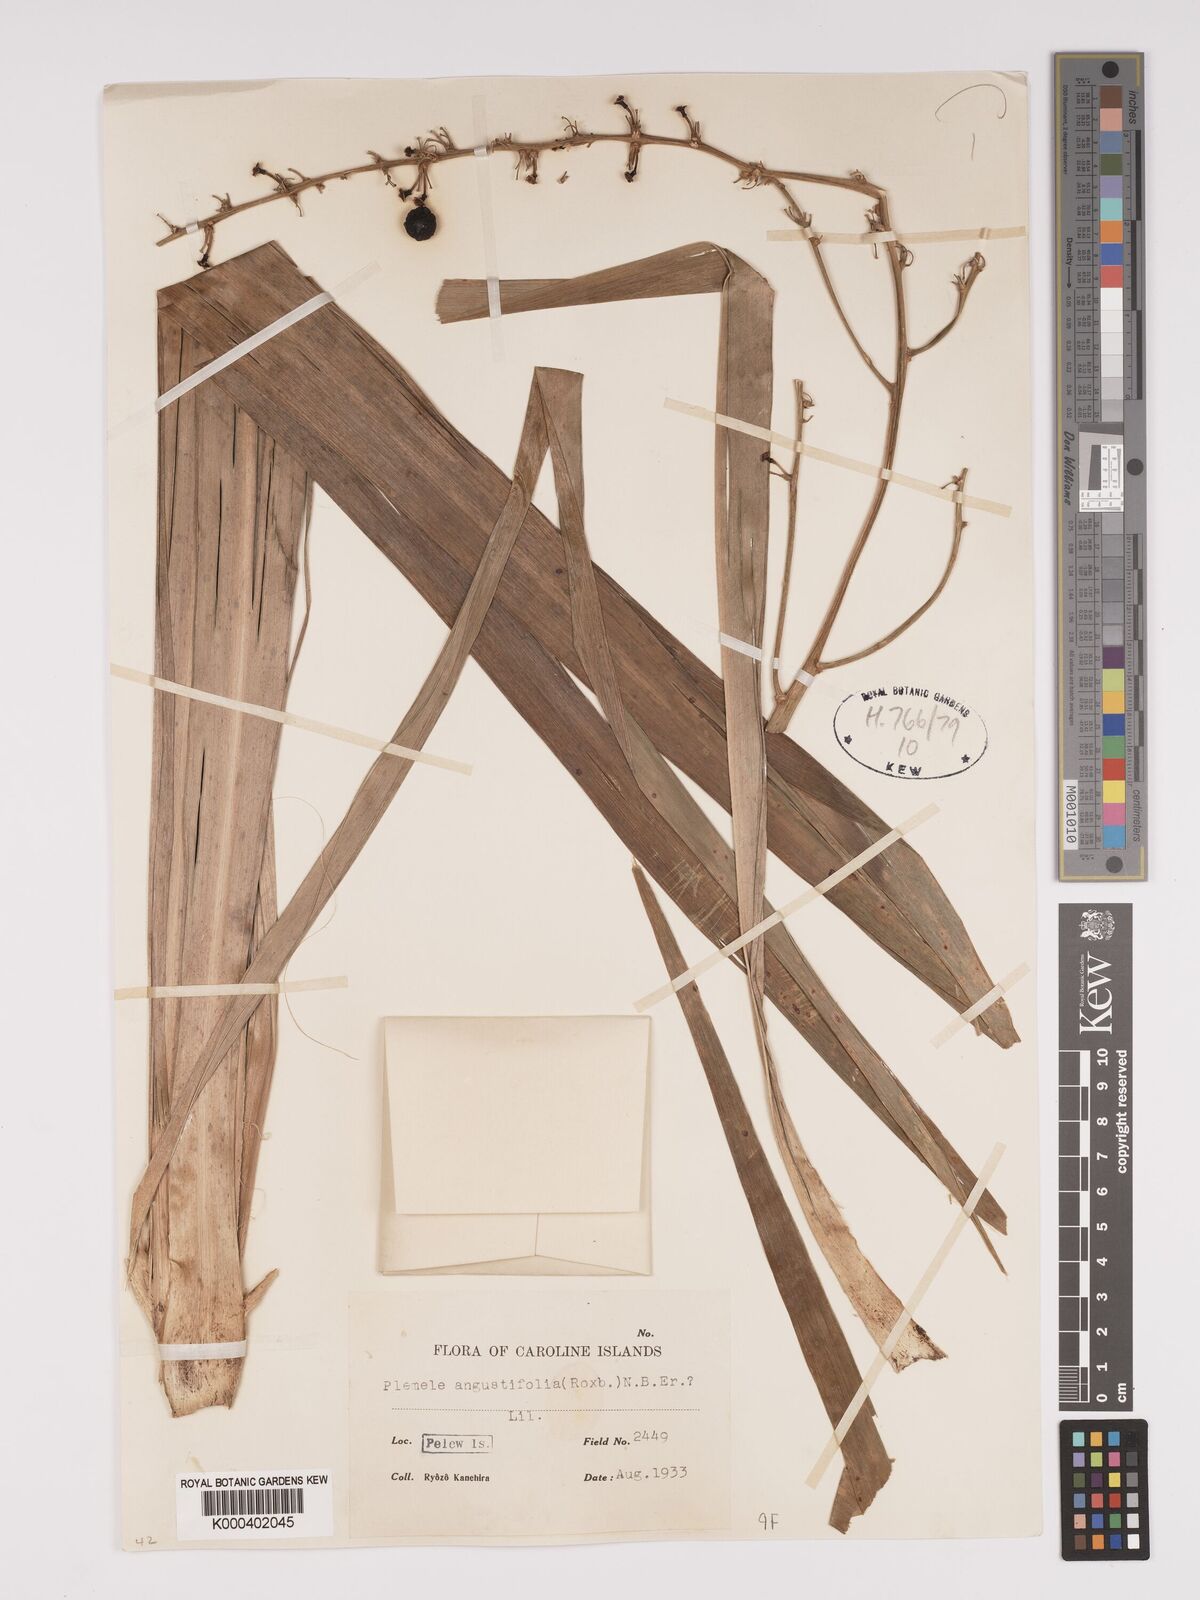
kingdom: Plantae
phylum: Tracheophyta
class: Liliopsida
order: Asparagales
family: Asparagaceae
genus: Dracaena
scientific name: Dracaena angustifolia
